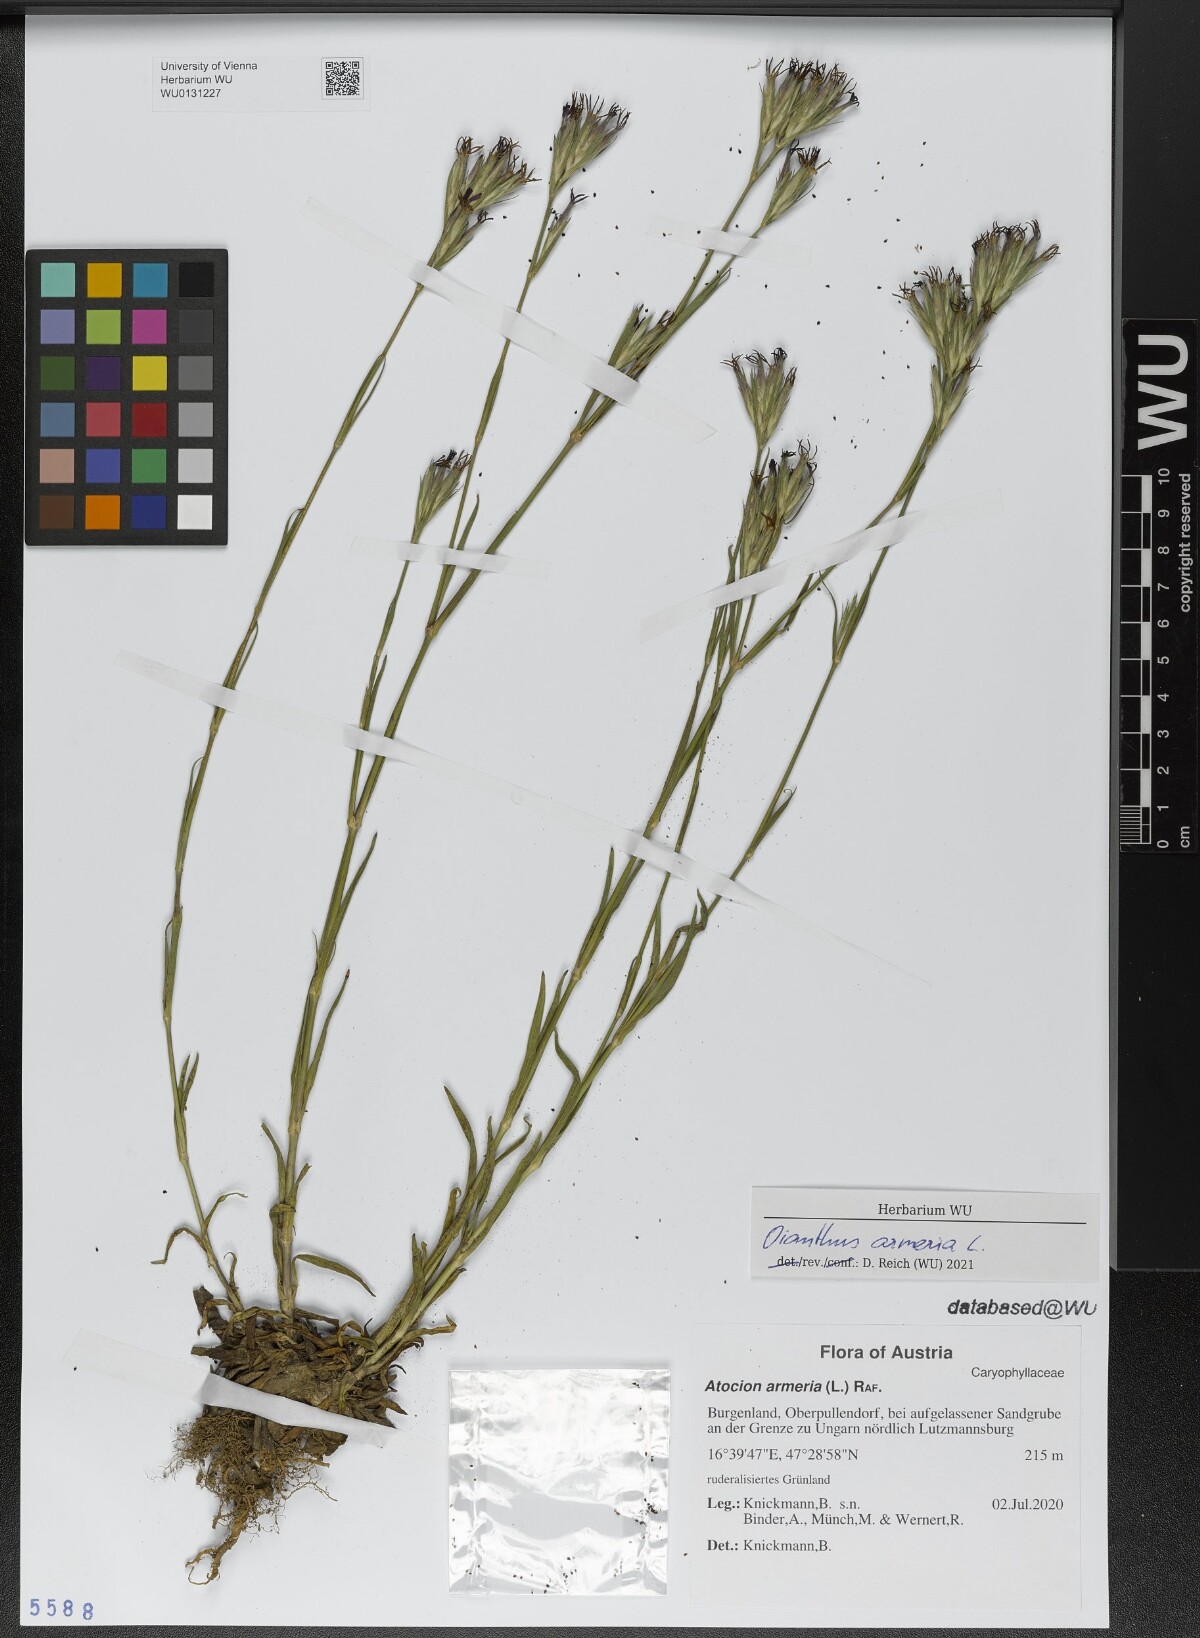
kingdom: Plantae
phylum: Tracheophyta
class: Magnoliopsida
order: Caryophyllales
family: Caryophyllaceae
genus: Dianthus
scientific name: Dianthus armeria
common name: Deptford pink
